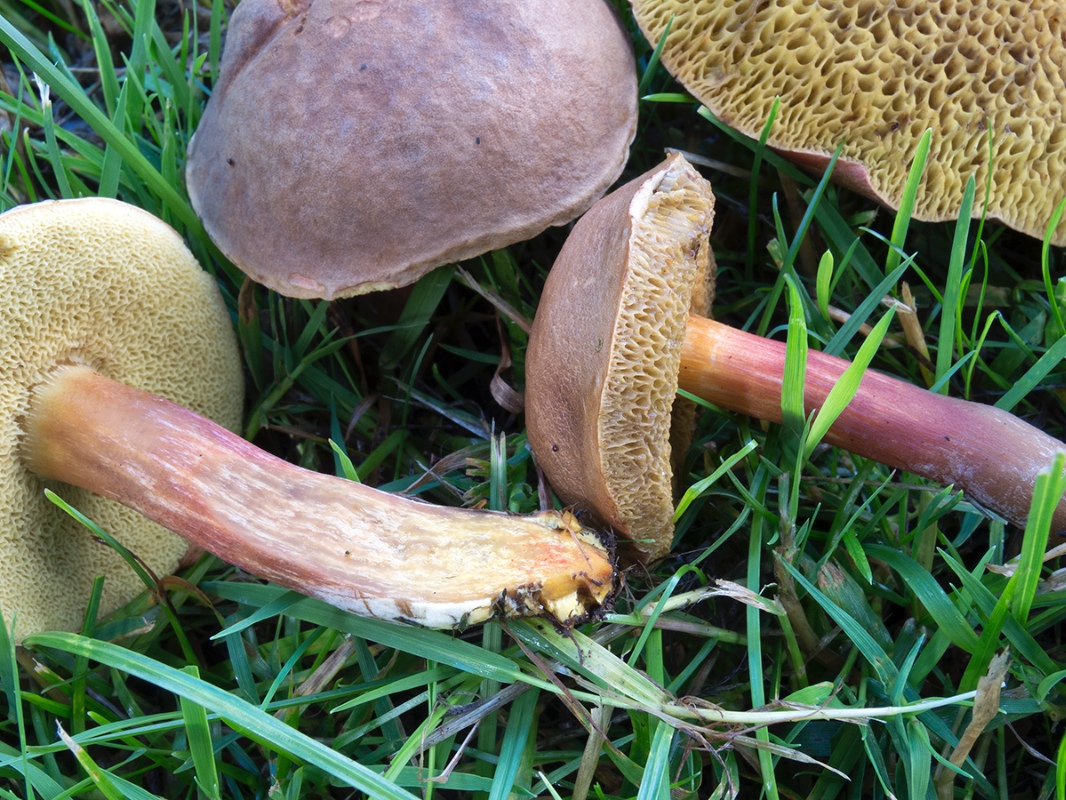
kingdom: Fungi
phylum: Basidiomycota
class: Agaricomycetes
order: Boletales
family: Boletaceae
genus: Hortiboletus
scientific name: Hortiboletus engelii
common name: fersken-rørhat
